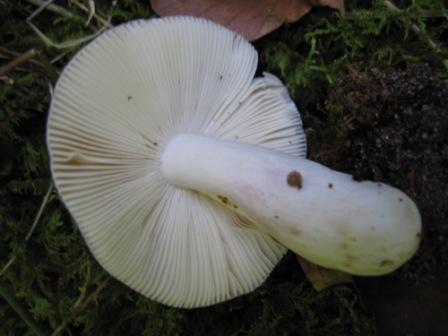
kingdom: Fungi
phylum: Basidiomycota
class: Agaricomycetes
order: Russulales
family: Russulaceae
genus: Russula
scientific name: Russula ionochlora
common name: violetgrøn skørhat
